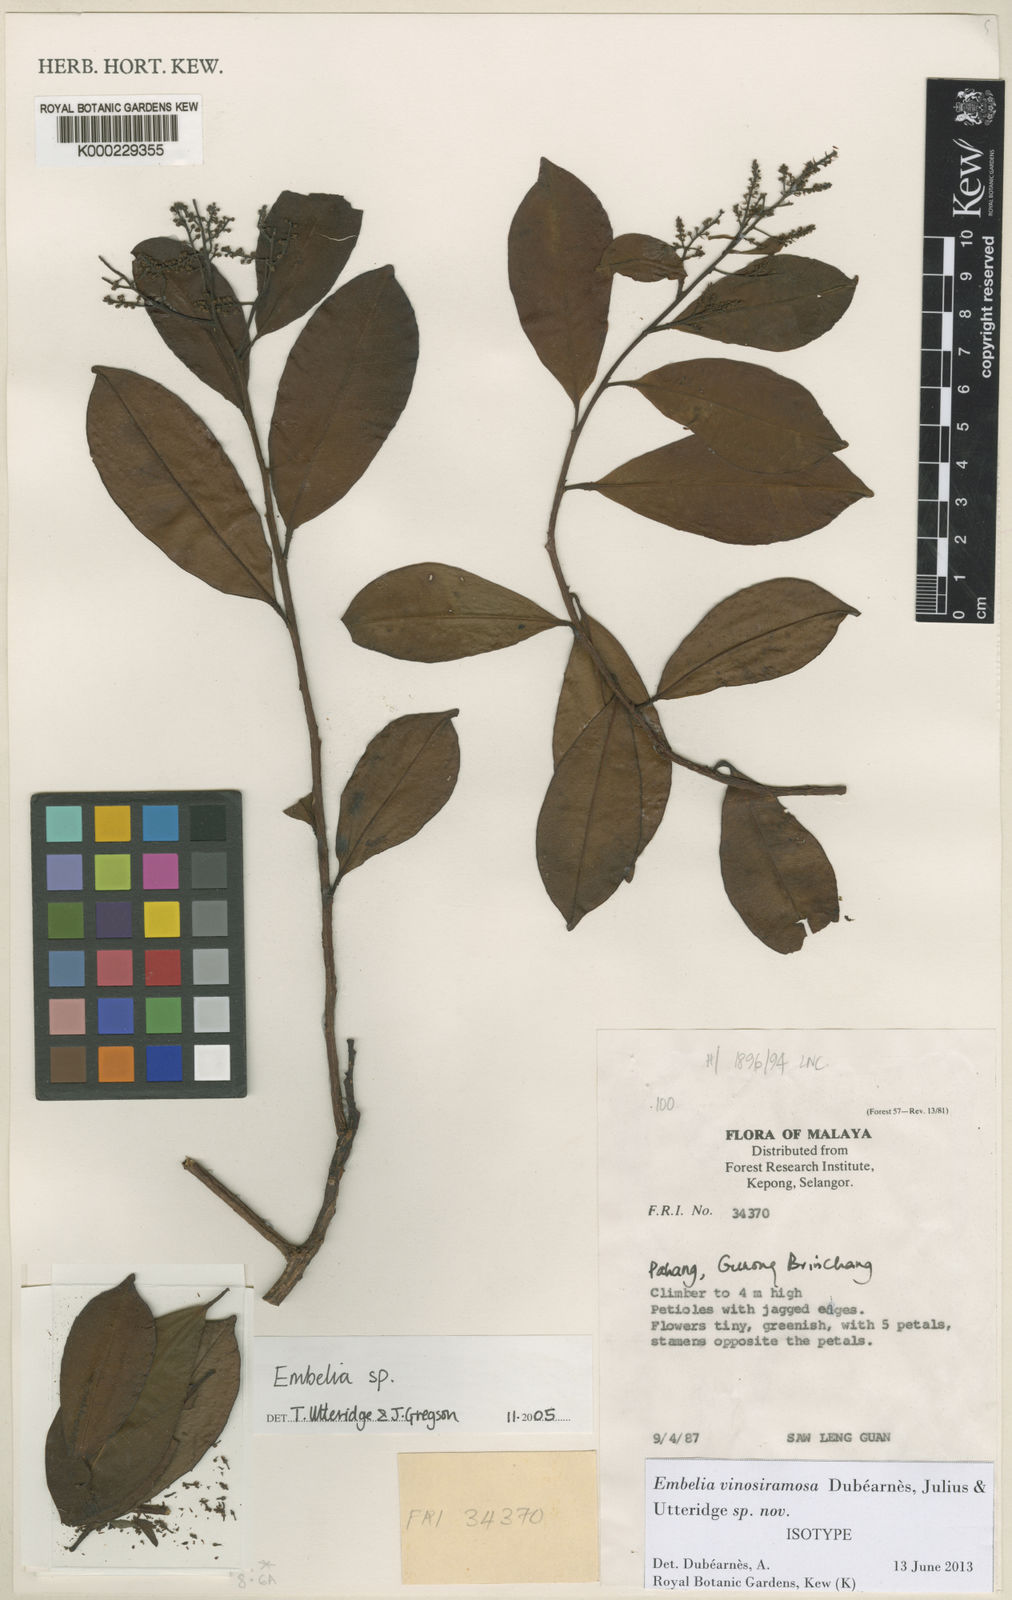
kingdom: Plantae
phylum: Tracheophyta
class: Magnoliopsida
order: Ericales
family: Primulaceae
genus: Embelia
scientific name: Embelia
